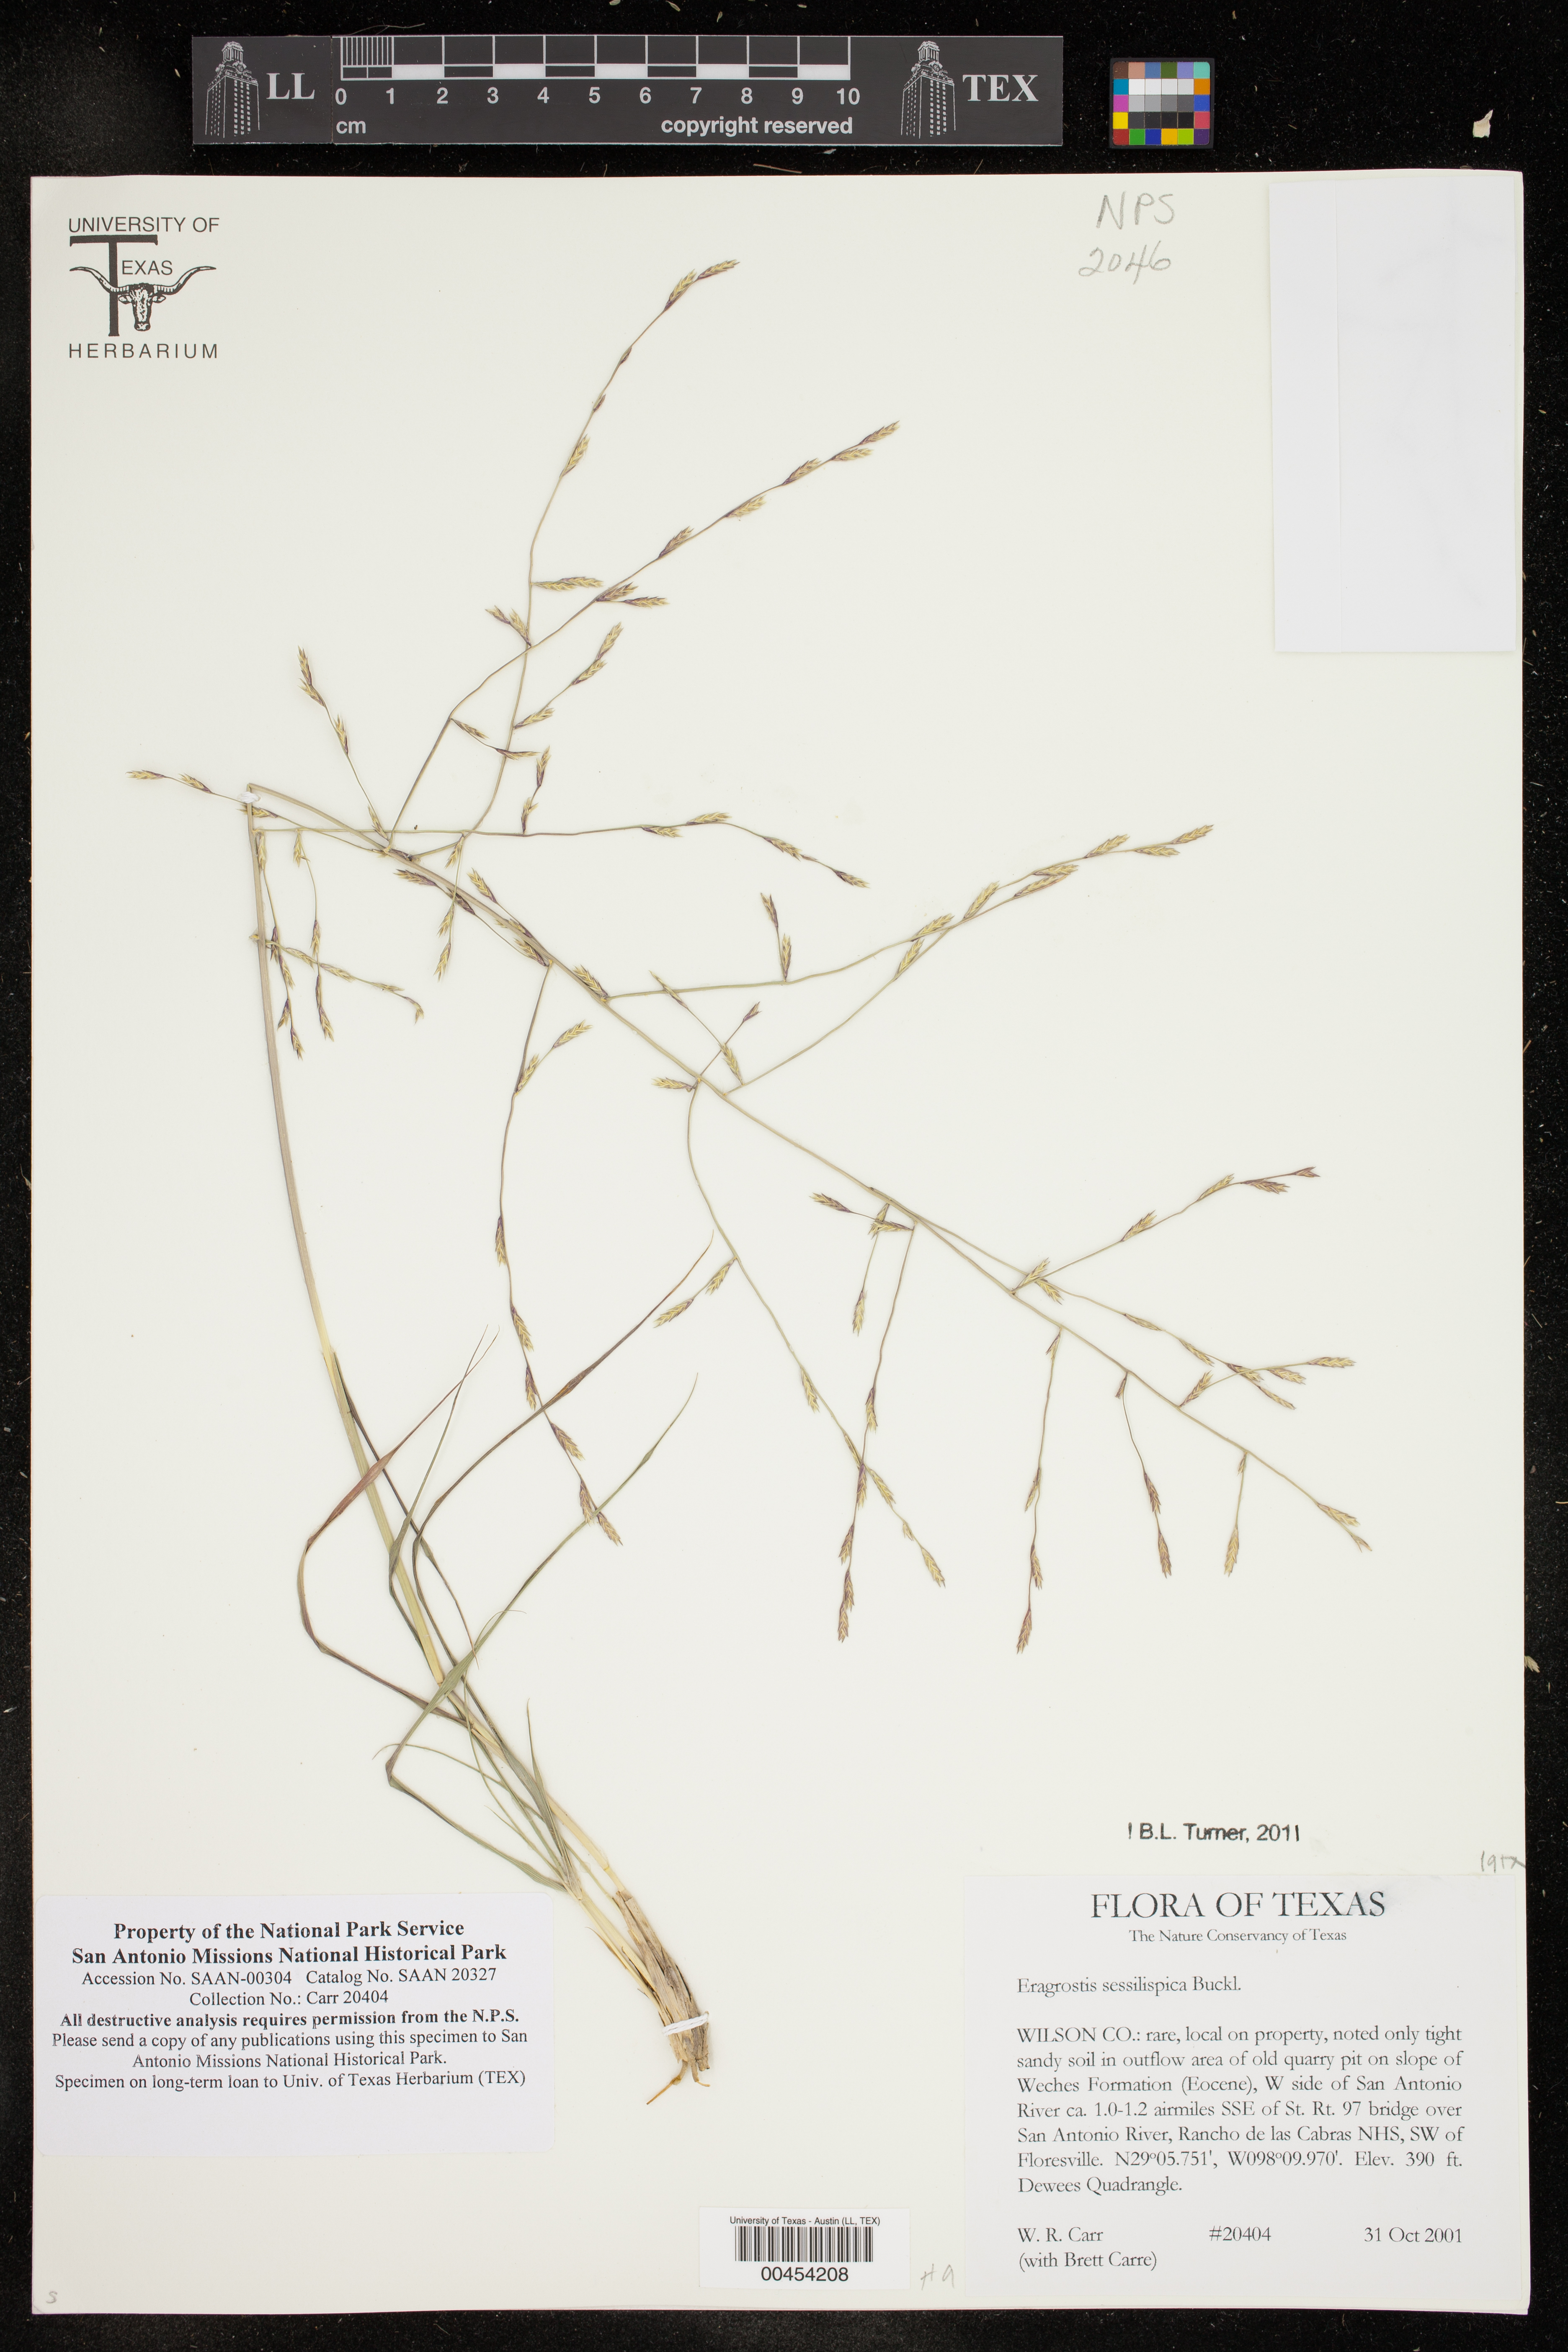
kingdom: Plantae
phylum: Tracheophyta
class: Liliopsida
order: Poales
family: Poaceae
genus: Eragrostis
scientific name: Eragrostis sessilispica
